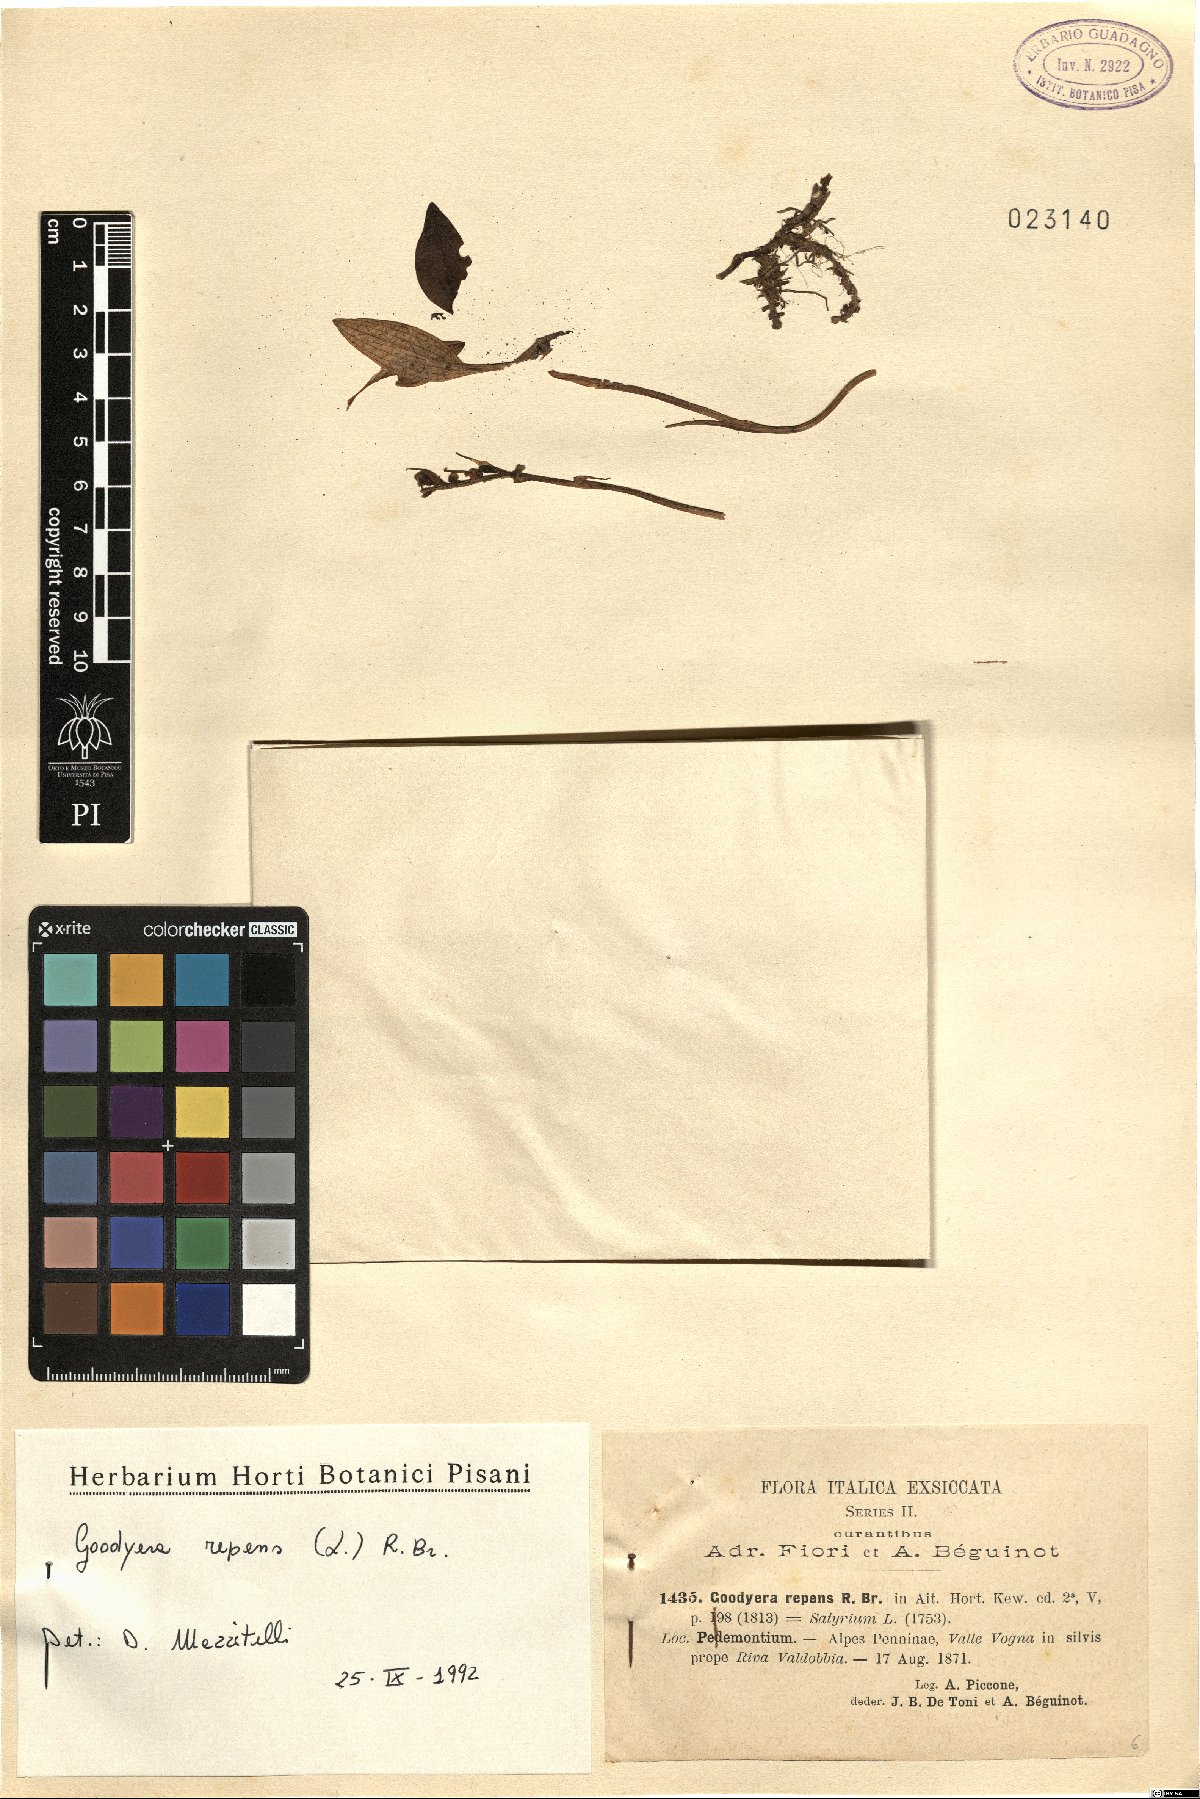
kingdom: Plantae
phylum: Tracheophyta
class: Liliopsida
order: Asparagales
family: Orchidaceae
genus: Goodyera
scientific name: Goodyera repens
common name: Creeping lady's-tresses
